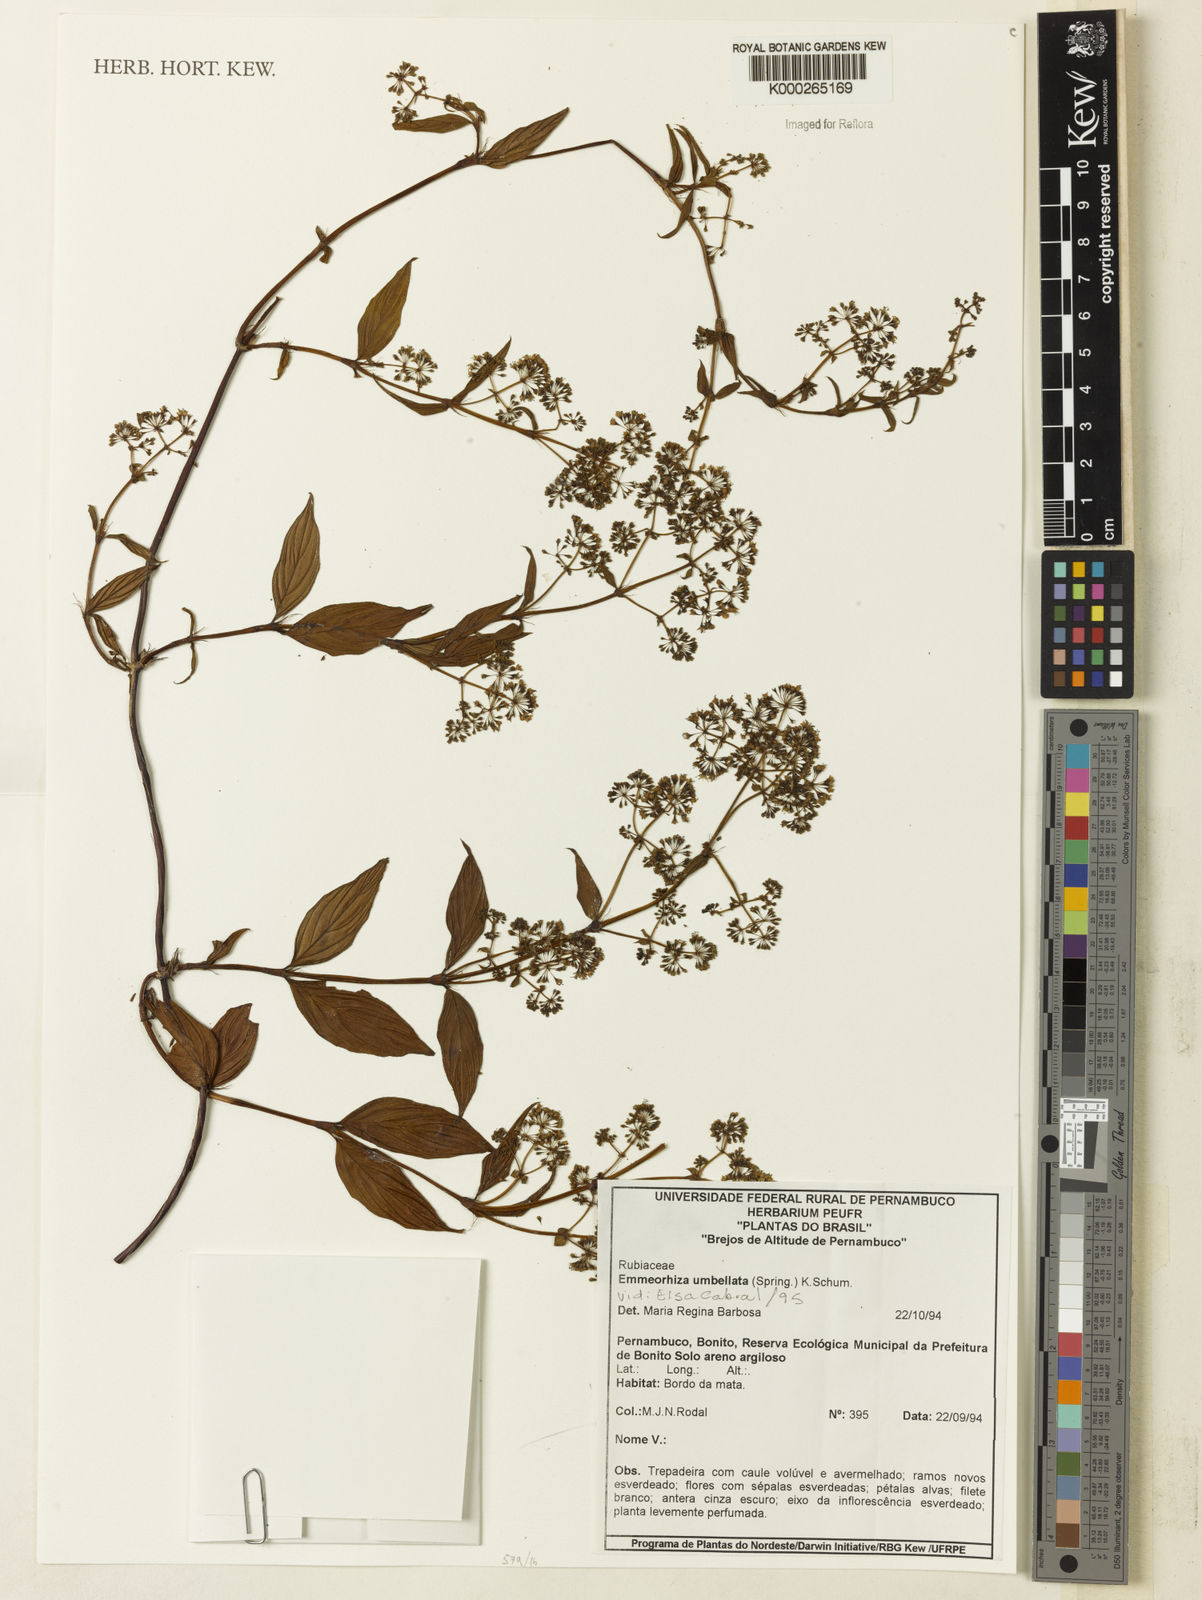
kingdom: Plantae
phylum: Tracheophyta
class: Magnoliopsida
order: Gentianales
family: Rubiaceae
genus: Emmeorhiza
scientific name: Emmeorhiza umbellata
